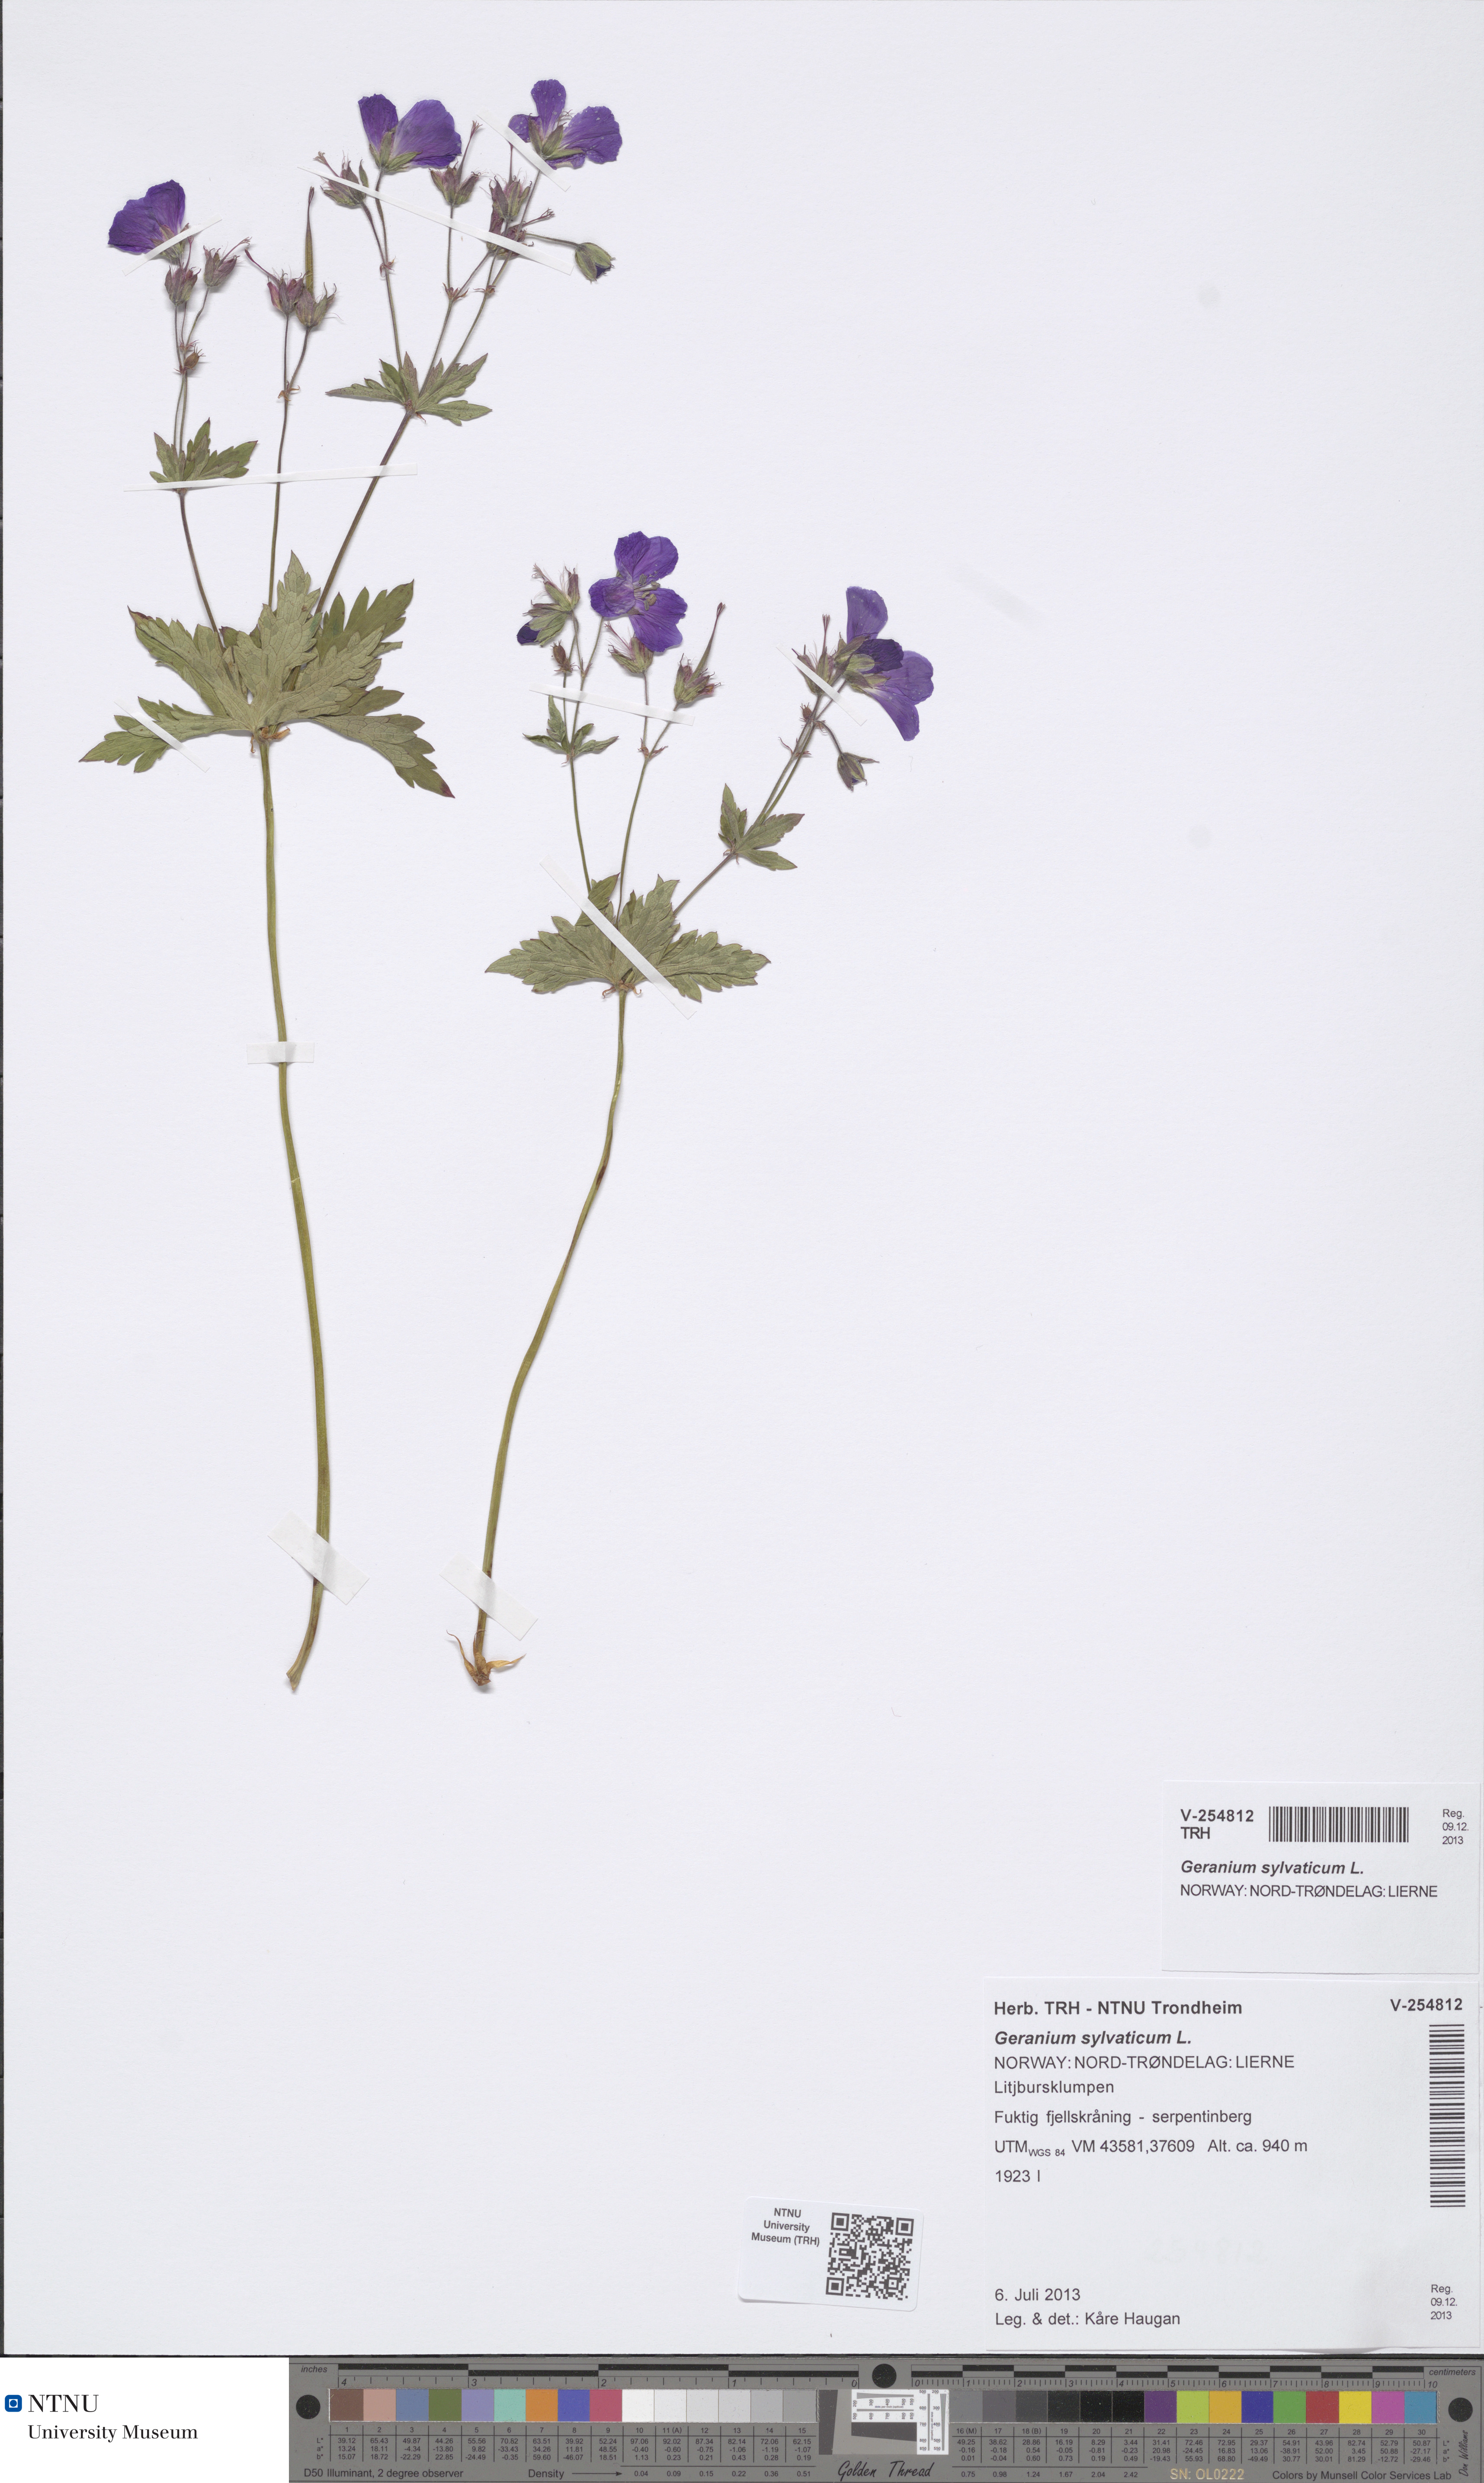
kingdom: Plantae
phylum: Tracheophyta
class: Magnoliopsida
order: Geraniales
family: Geraniaceae
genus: Geranium
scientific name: Geranium sylvaticum
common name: Wood crane's-bill
